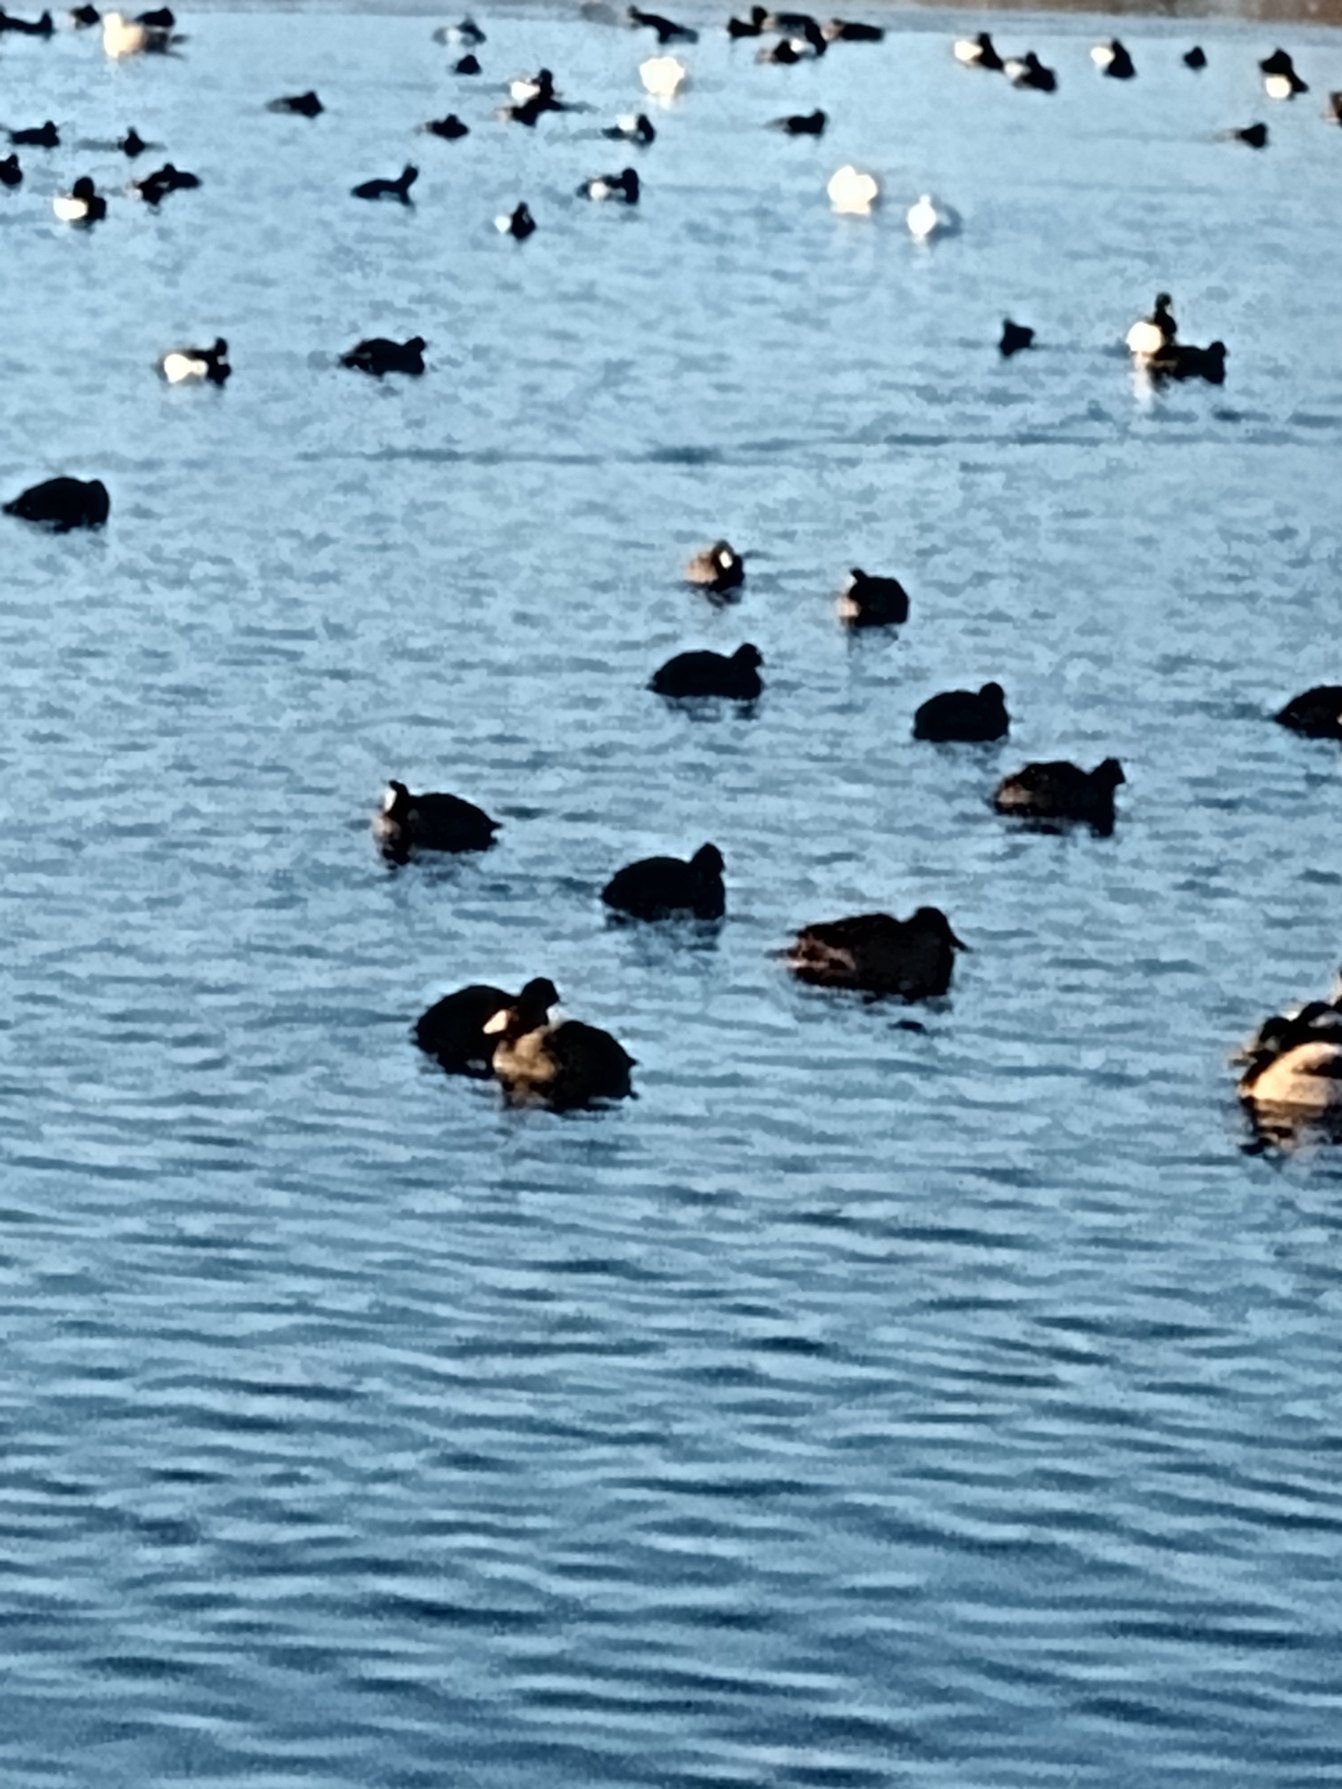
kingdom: Animalia
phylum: Chordata
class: Aves
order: Gruiformes
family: Rallidae
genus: Fulica
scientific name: Fulica atra
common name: Blishøne
